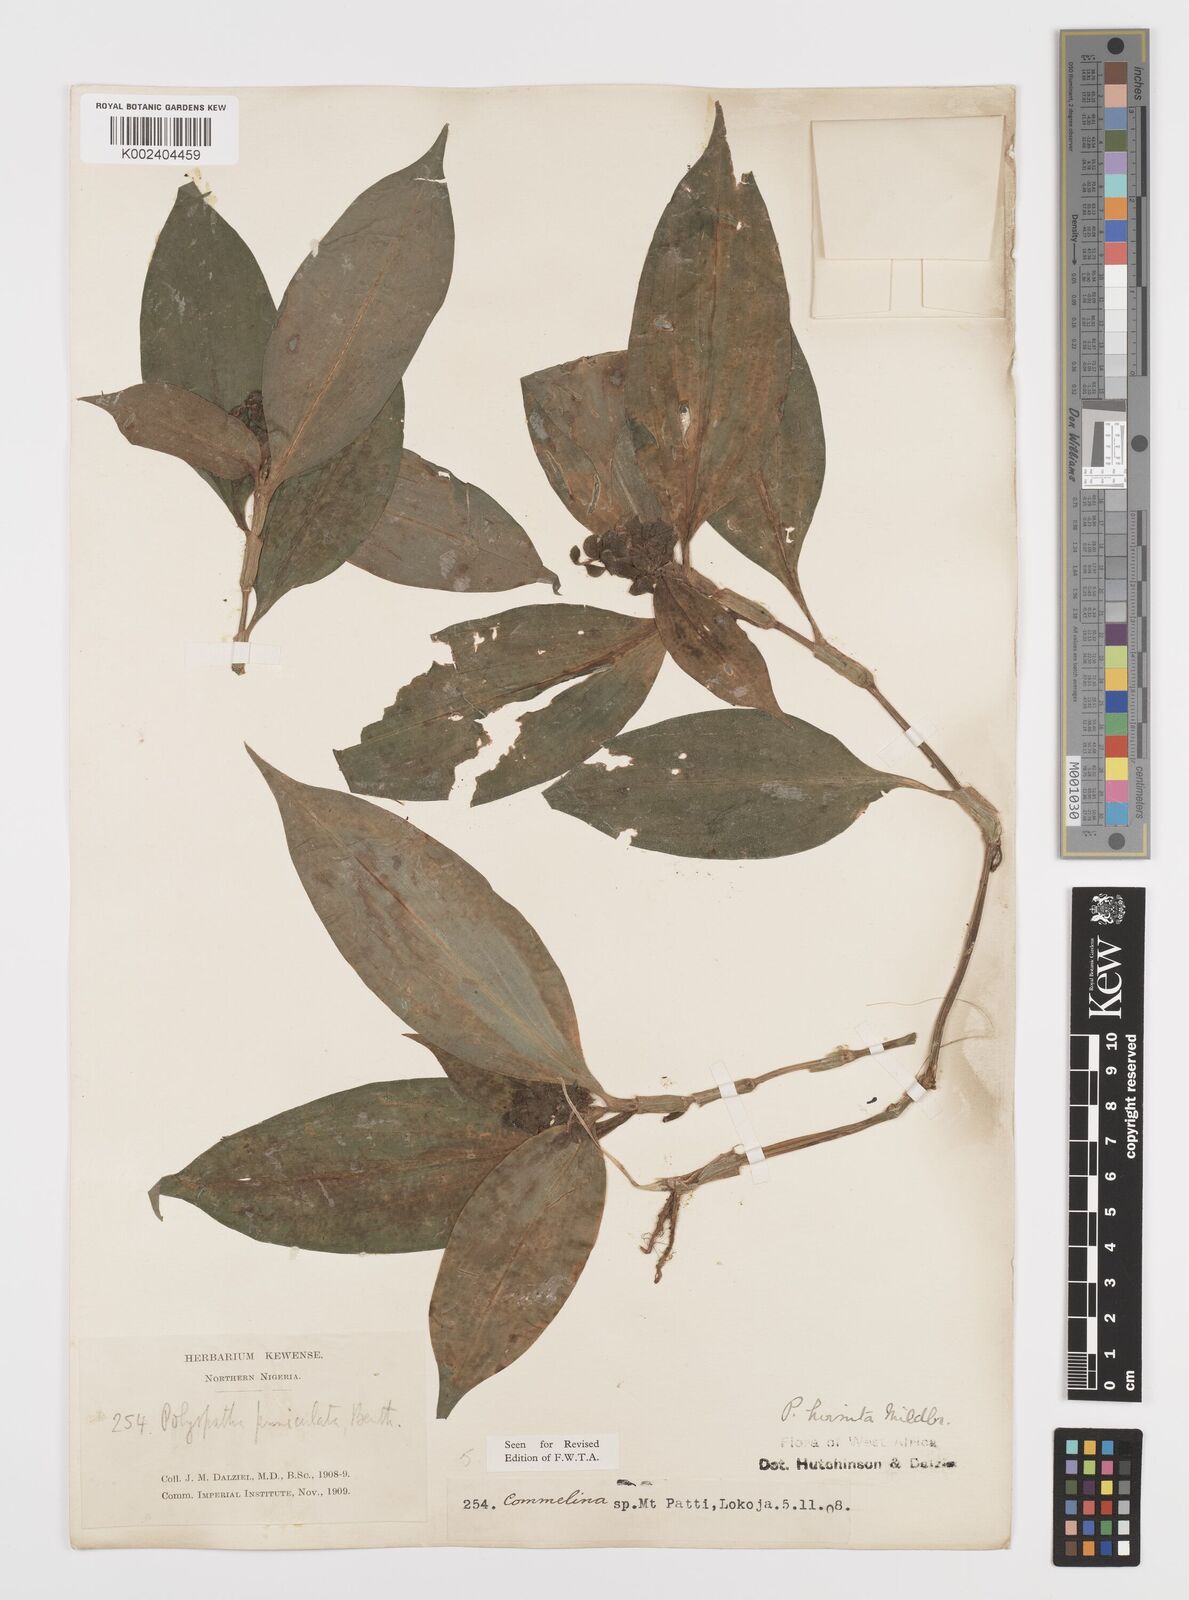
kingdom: Plantae
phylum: Tracheophyta
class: Liliopsida
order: Commelinales
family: Commelinaceae
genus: Polyspatha
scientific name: Polyspatha hirsuta
